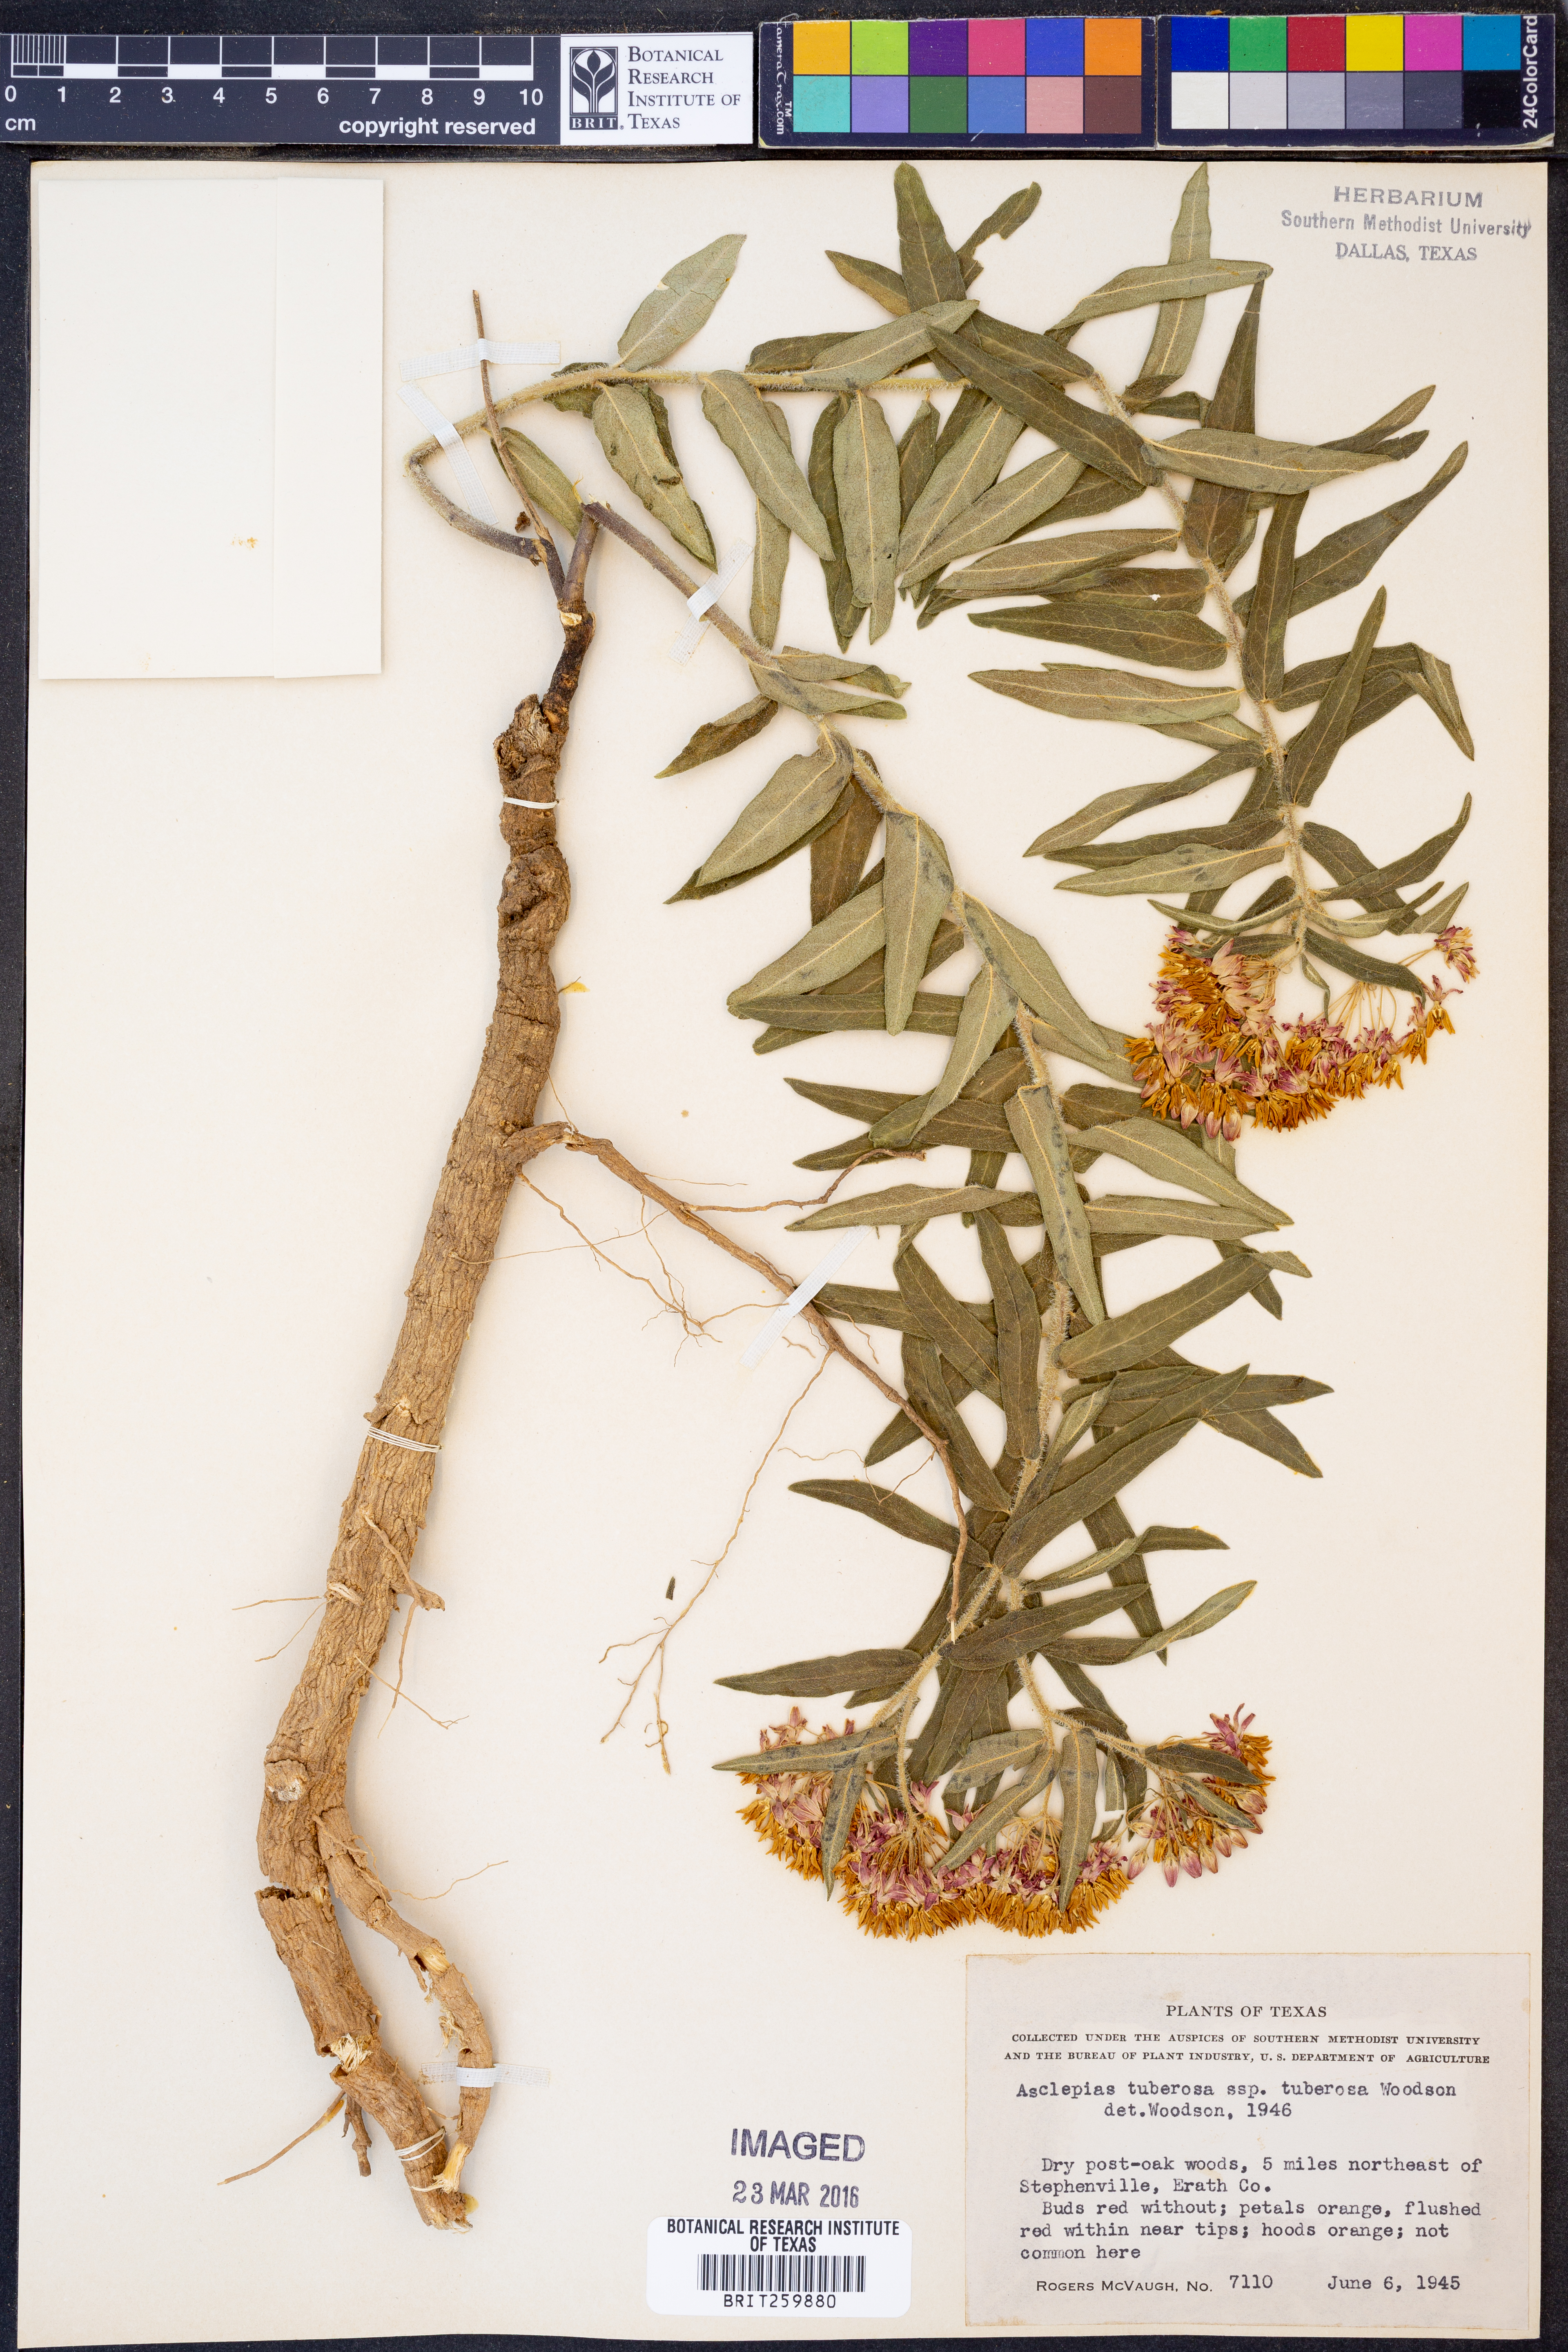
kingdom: Plantae
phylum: Tracheophyta
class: Magnoliopsida
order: Gentianales
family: Apocynaceae
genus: Asclepias
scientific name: Asclepias tuberosa
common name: Butterfly milkweed
